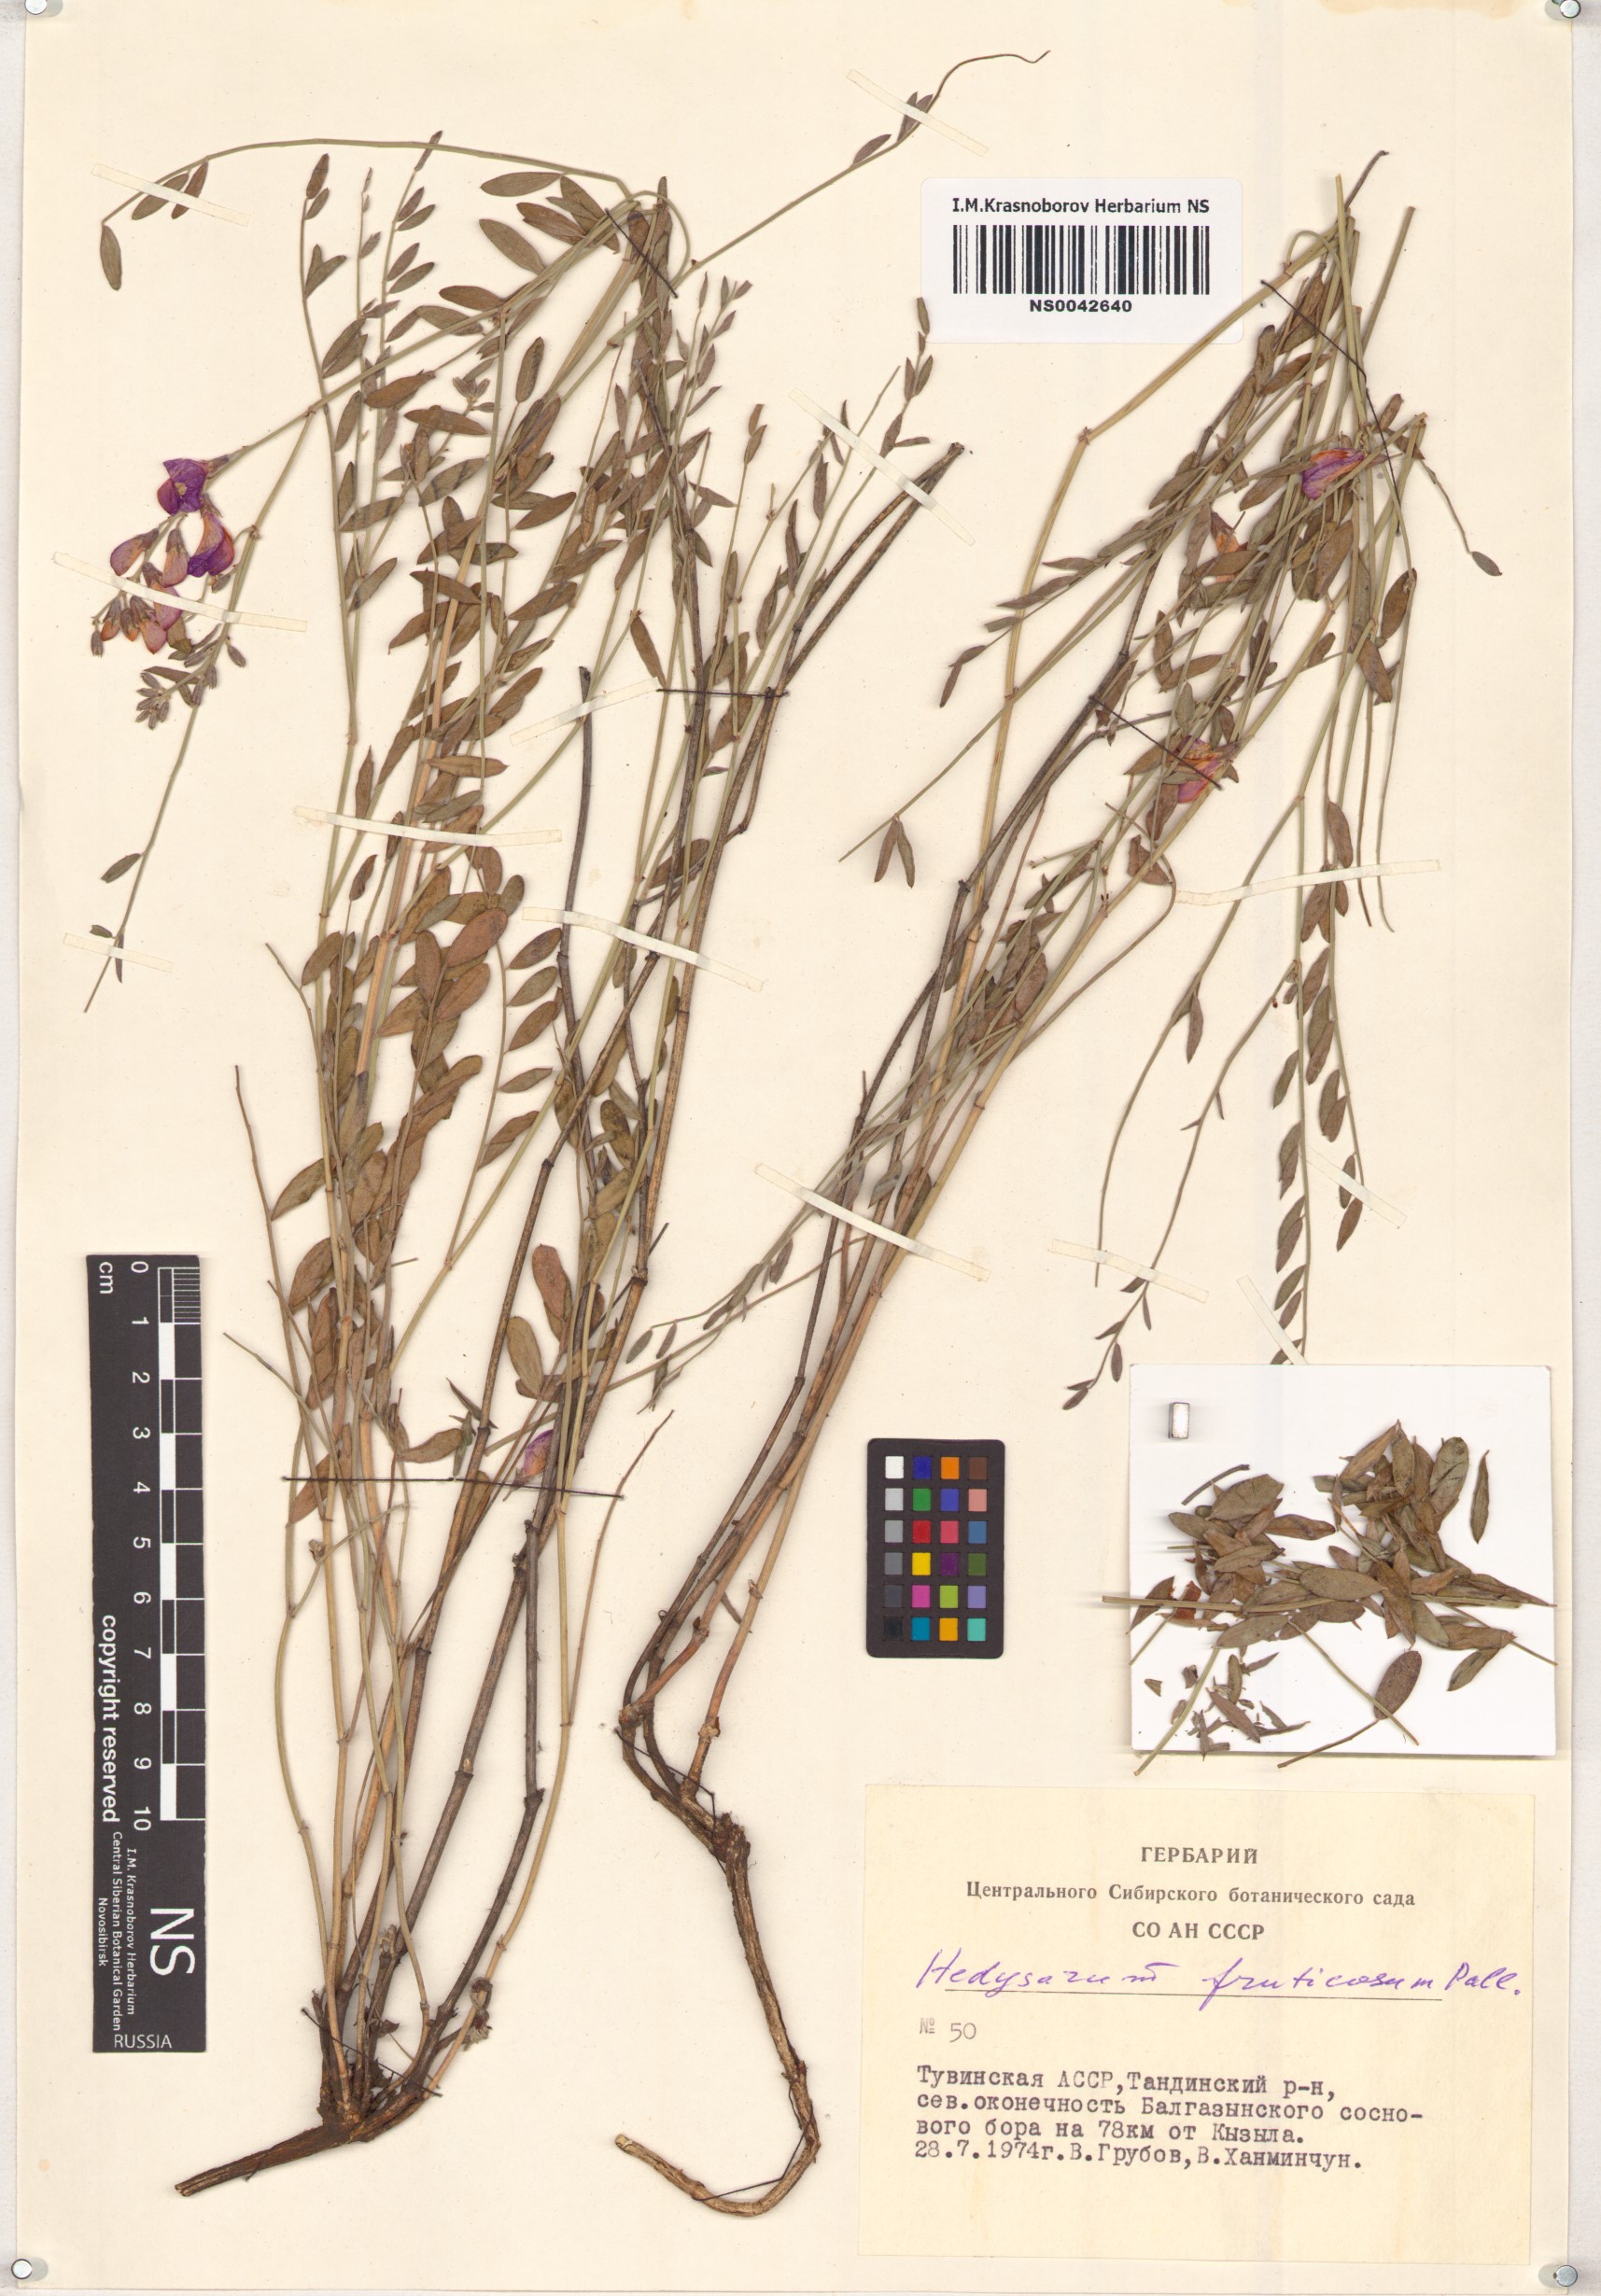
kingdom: Plantae
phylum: Tracheophyta
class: Magnoliopsida
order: Fabales
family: Fabaceae
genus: Corethrodendron
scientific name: Corethrodendron fruticosum
